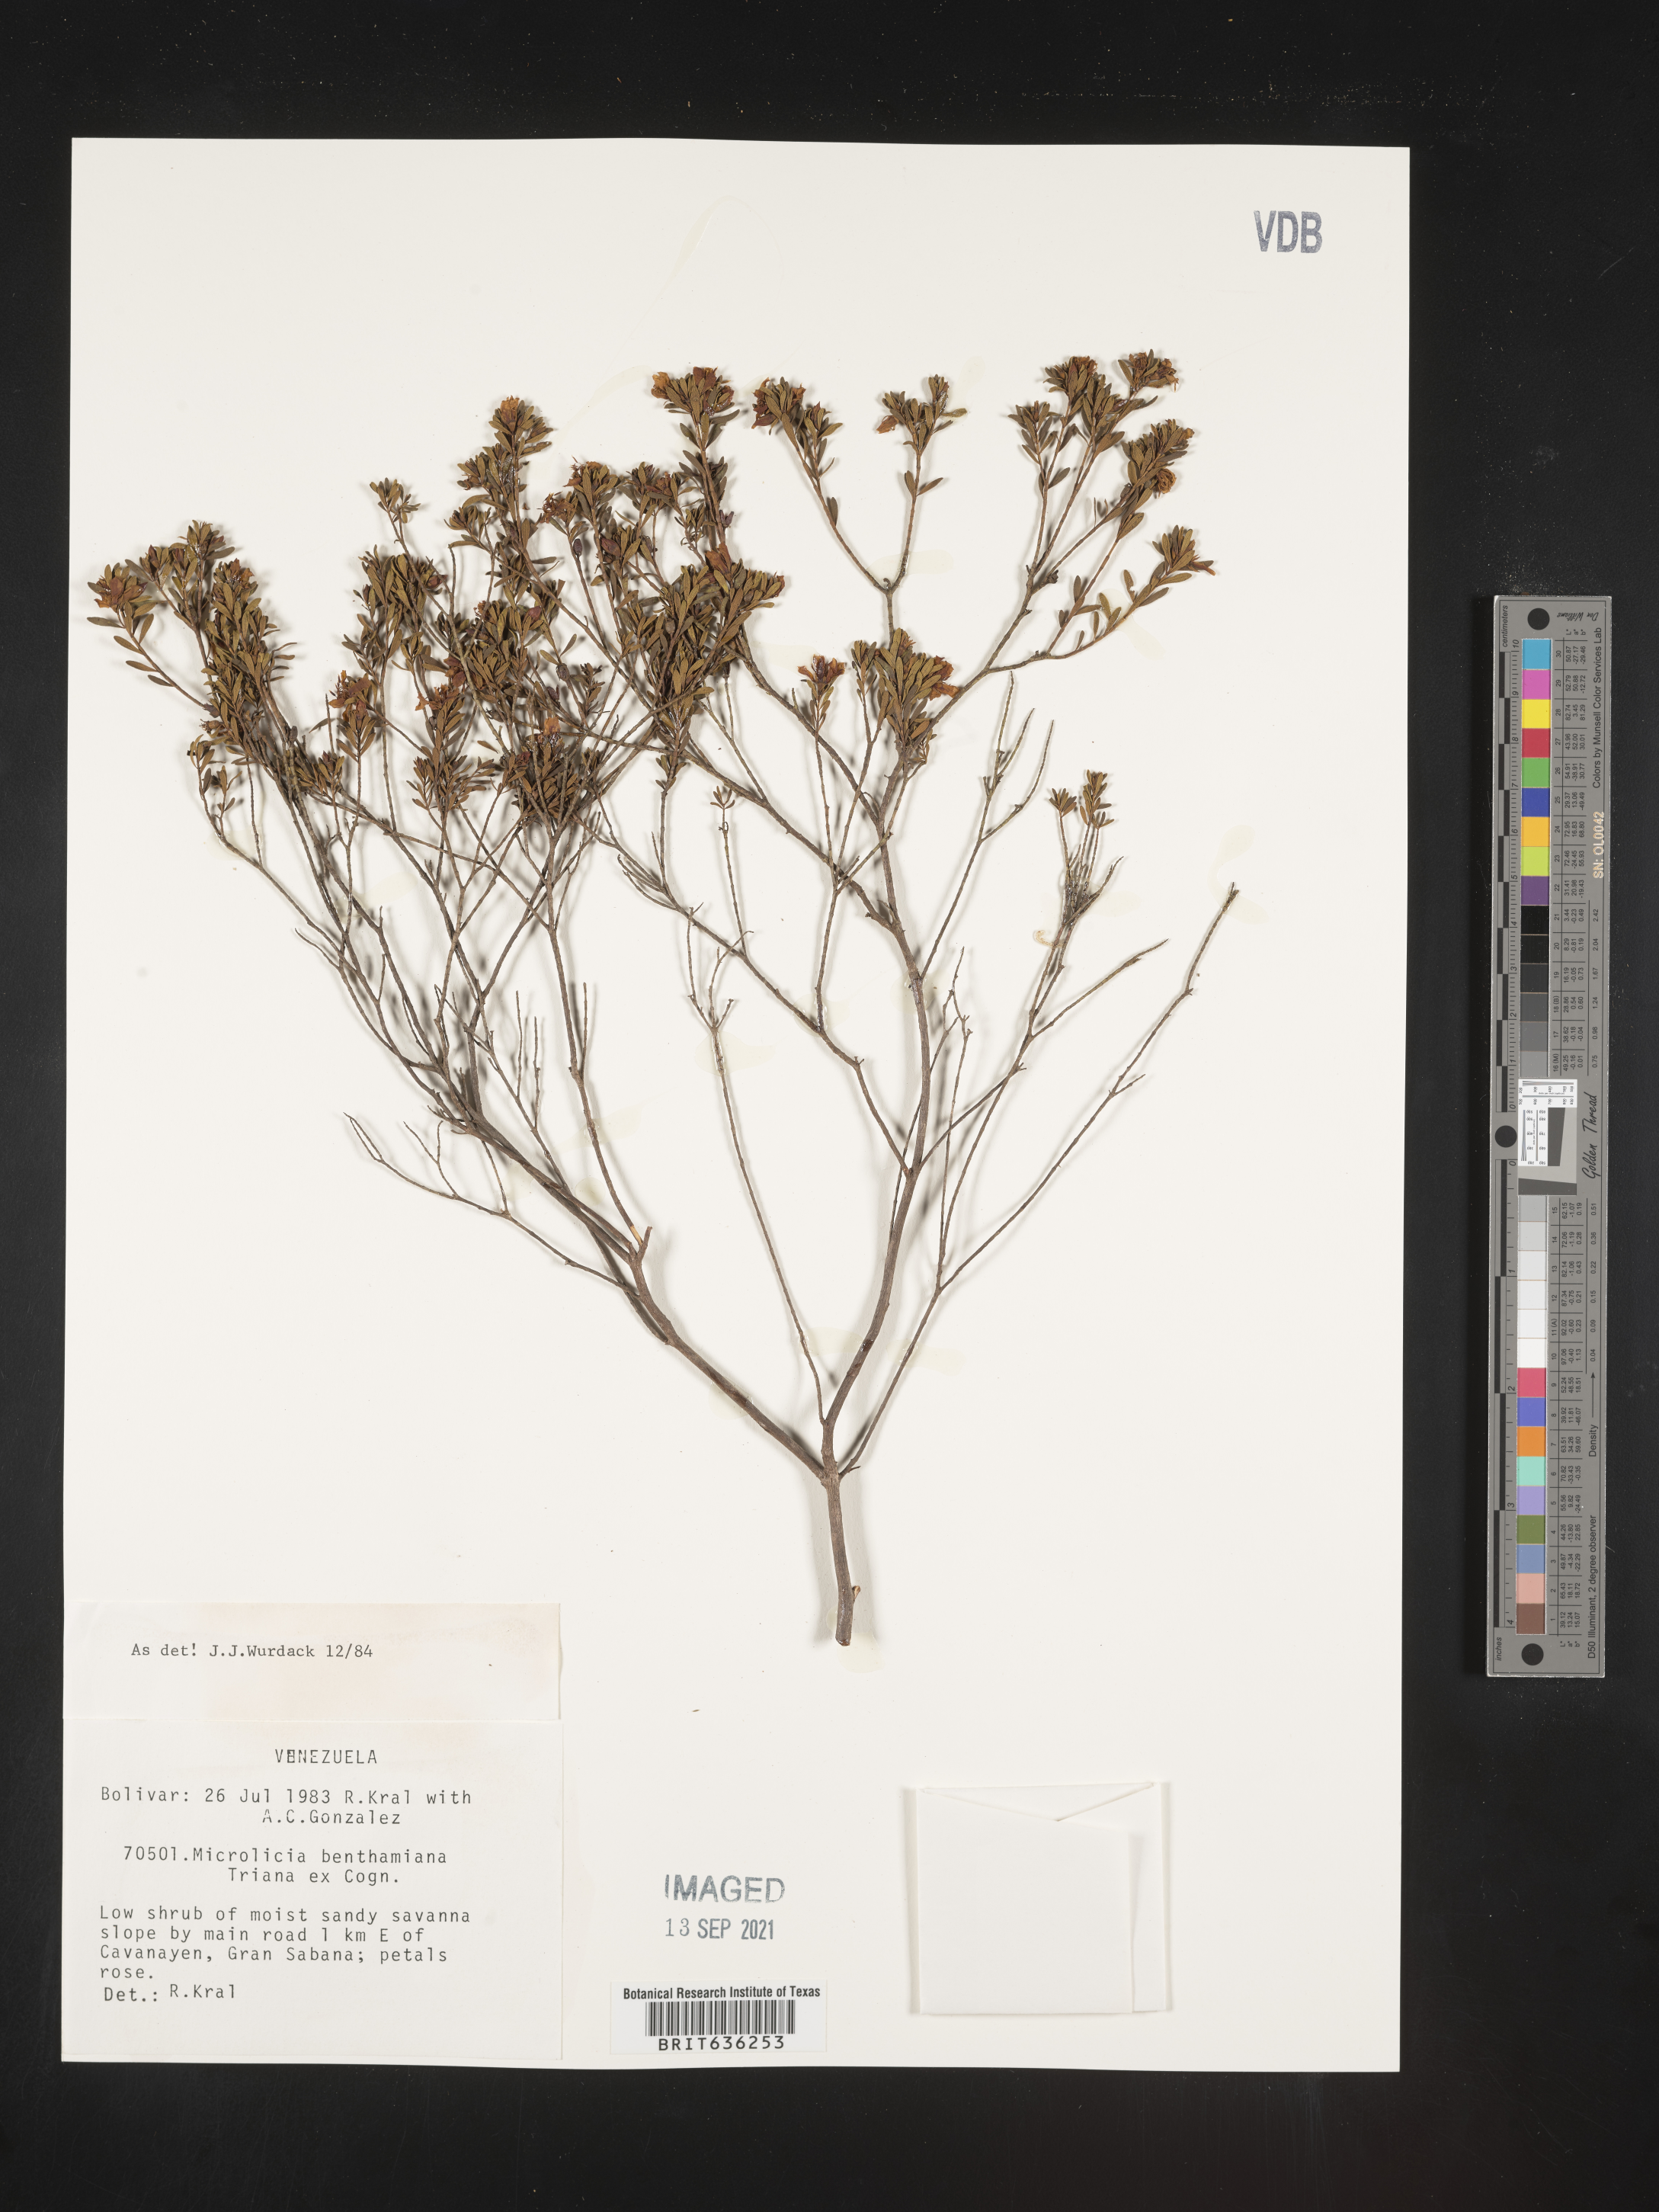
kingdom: Plantae
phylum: Tracheophyta
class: Magnoliopsida
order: Myrtales
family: Melastomataceae
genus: Microlicia
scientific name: Microlicia
